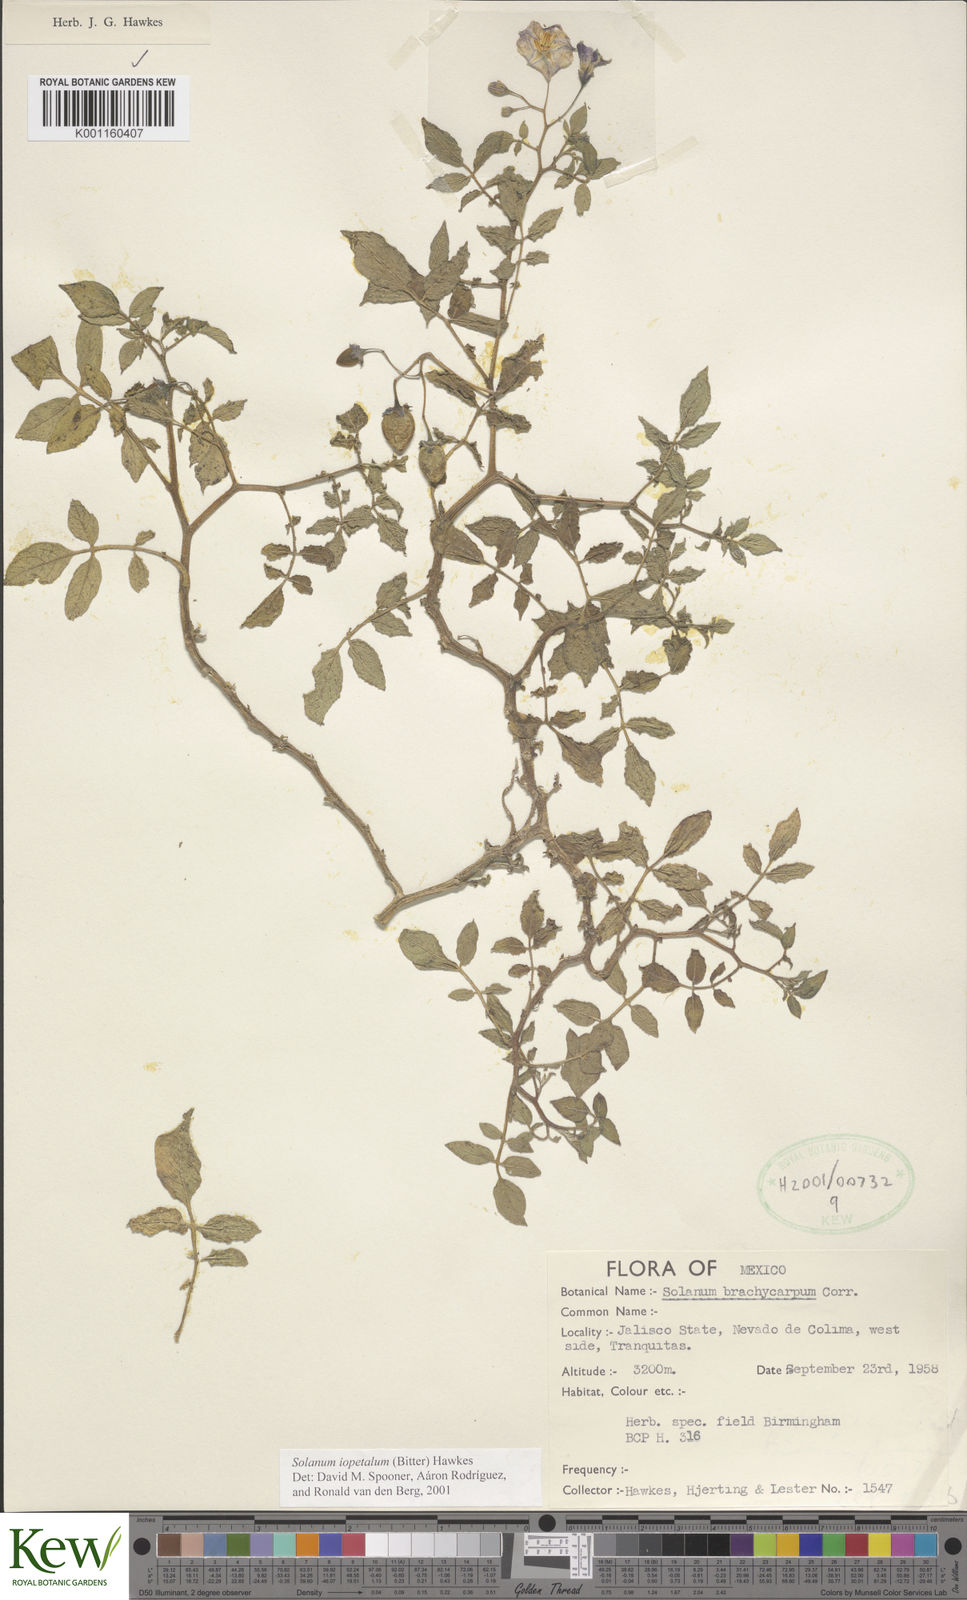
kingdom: Plantae
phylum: Tracheophyta
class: Magnoliopsida
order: Solanales
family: Solanaceae
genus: Solanum
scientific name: Solanum iopetalum
